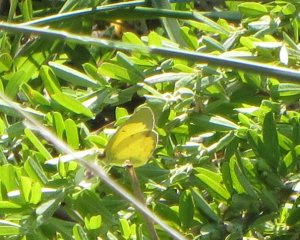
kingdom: Animalia
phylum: Arthropoda
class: Insecta
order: Lepidoptera
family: Pieridae
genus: Pyrisitia
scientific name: Pyrisitia lisa
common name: Little Yellow
